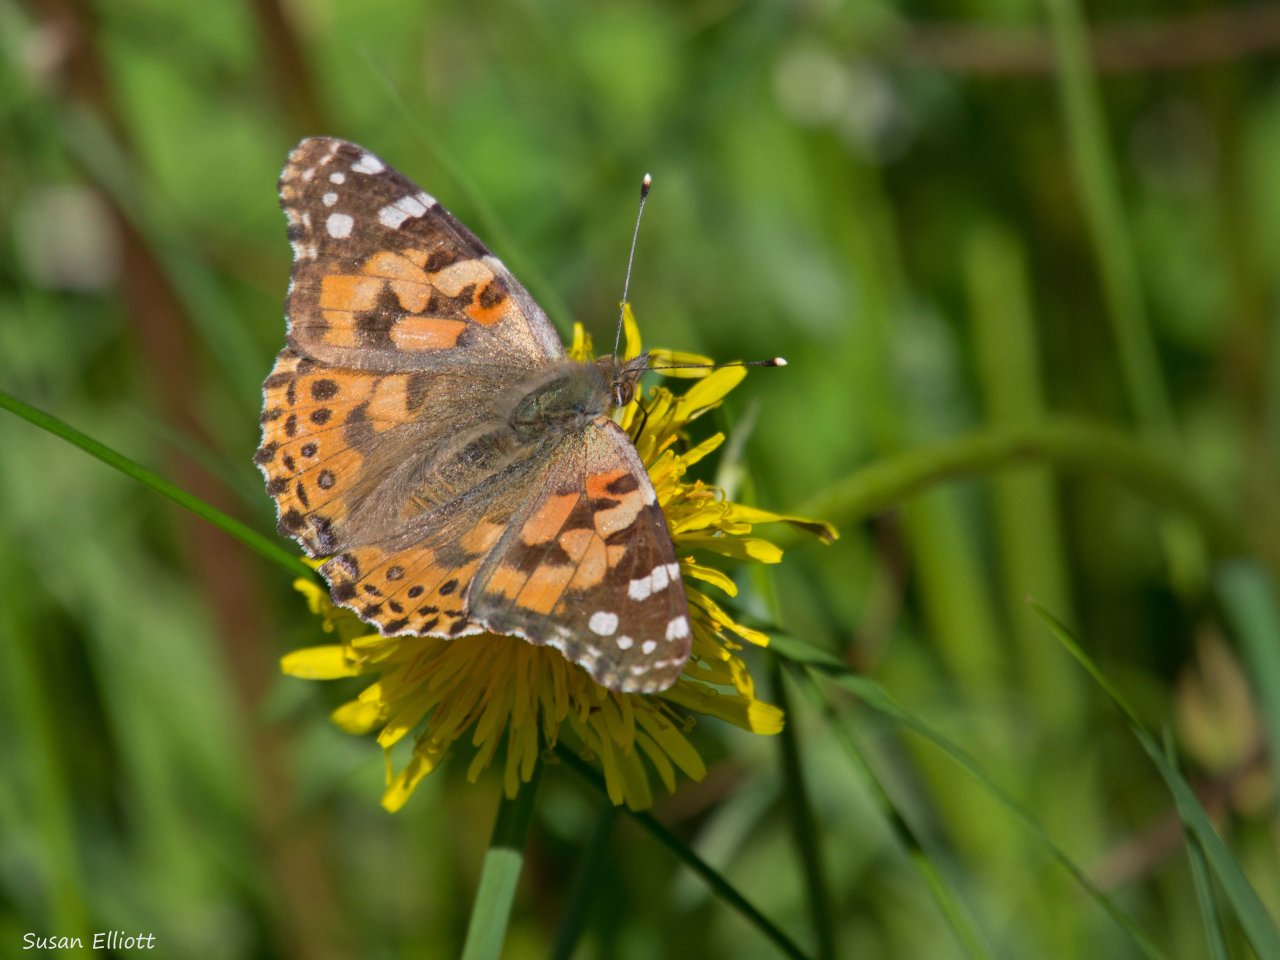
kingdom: Animalia
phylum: Arthropoda
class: Insecta
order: Lepidoptera
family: Nymphalidae
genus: Vanessa
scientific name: Vanessa cardui
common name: Painted Lady
